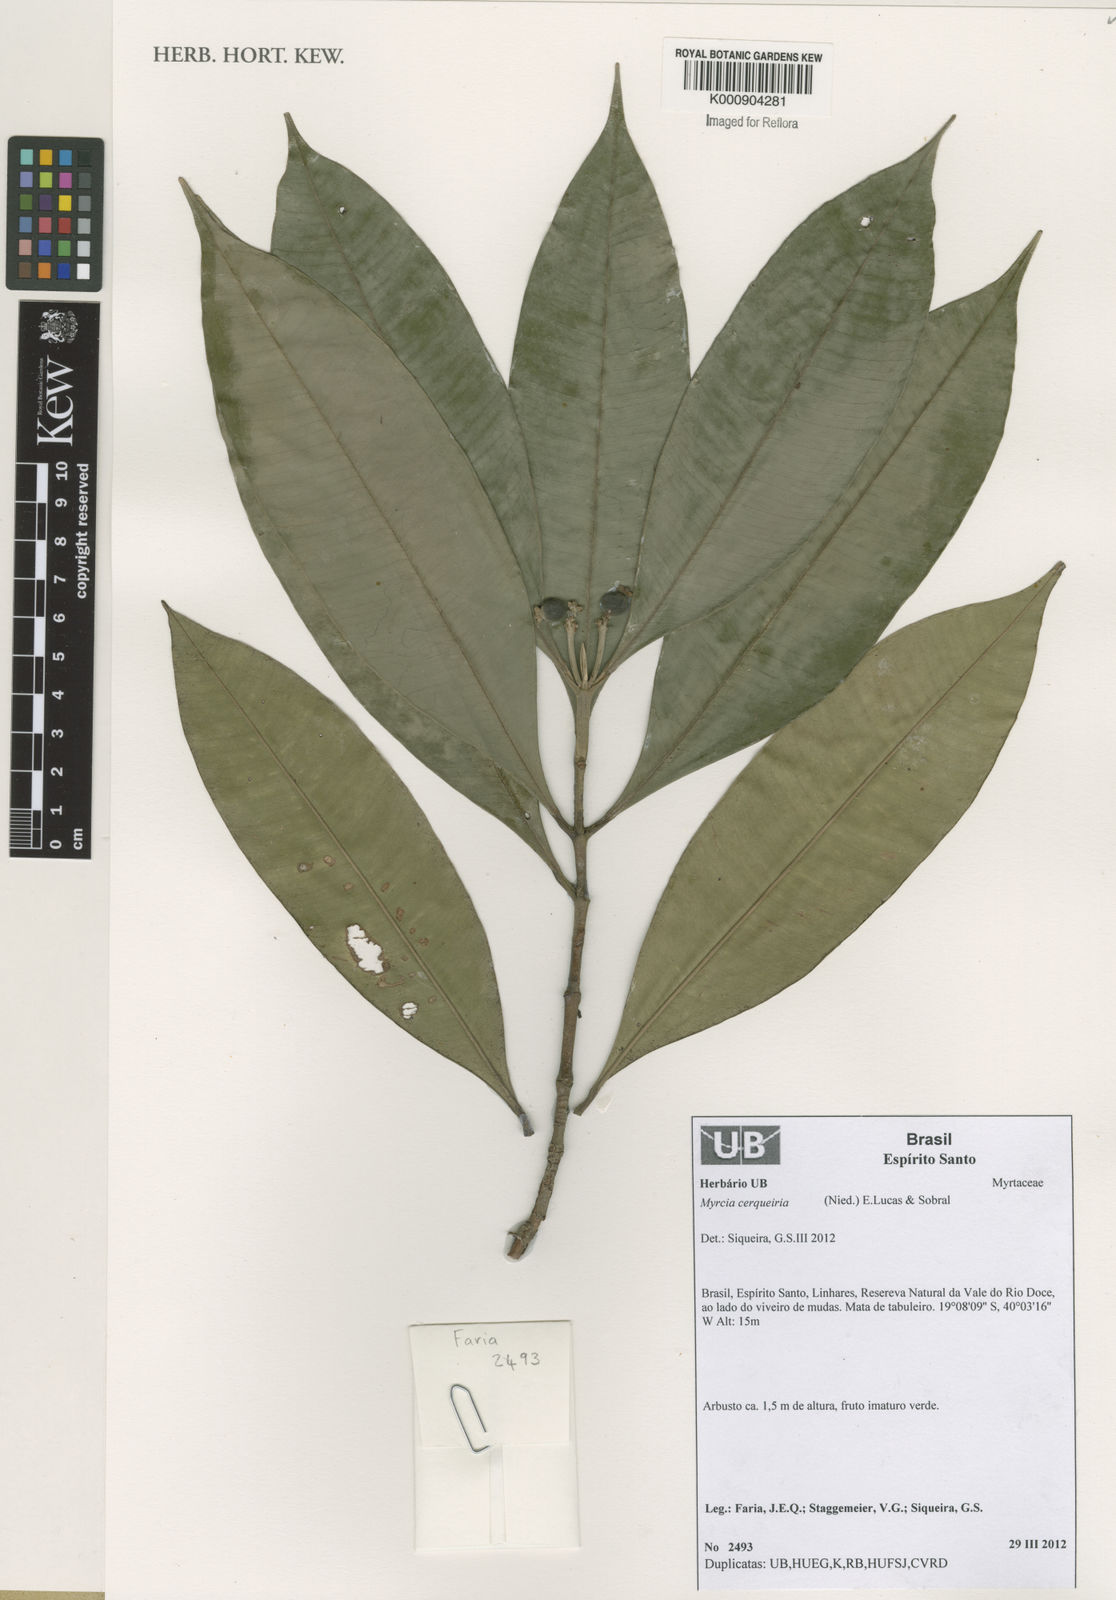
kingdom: Plantae
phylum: Tracheophyta
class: Magnoliopsida
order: Myrtales
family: Myrtaceae
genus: Myrcia
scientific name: Myrcia cerqueiria
